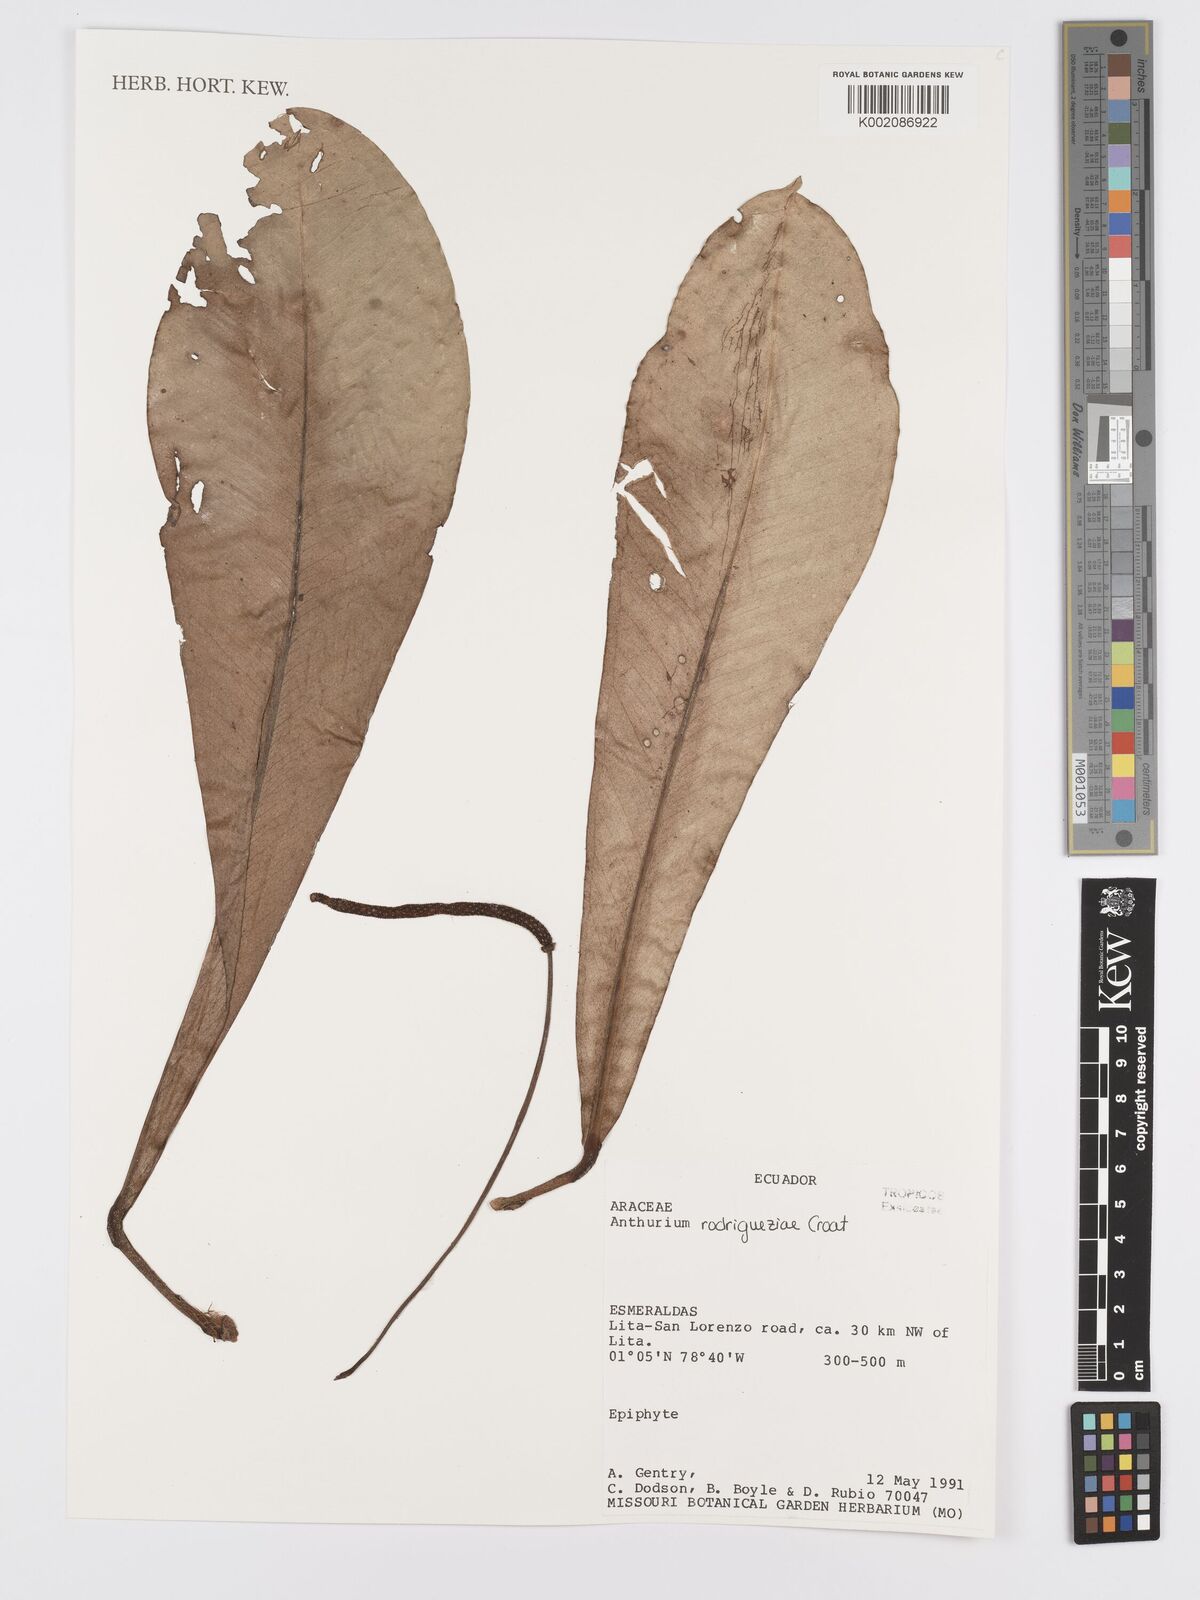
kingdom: Plantae
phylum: Tracheophyta
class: Liliopsida
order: Alismatales
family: Araceae
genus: Anthurium
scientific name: Anthurium rodrigueziae
